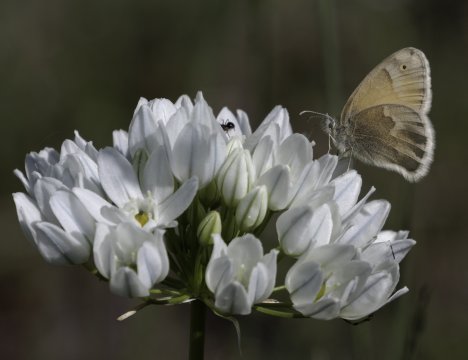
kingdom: Animalia
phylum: Arthropoda
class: Insecta
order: Lepidoptera
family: Nymphalidae
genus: Coenonympha
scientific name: Coenonympha tullia
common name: Large Heath
